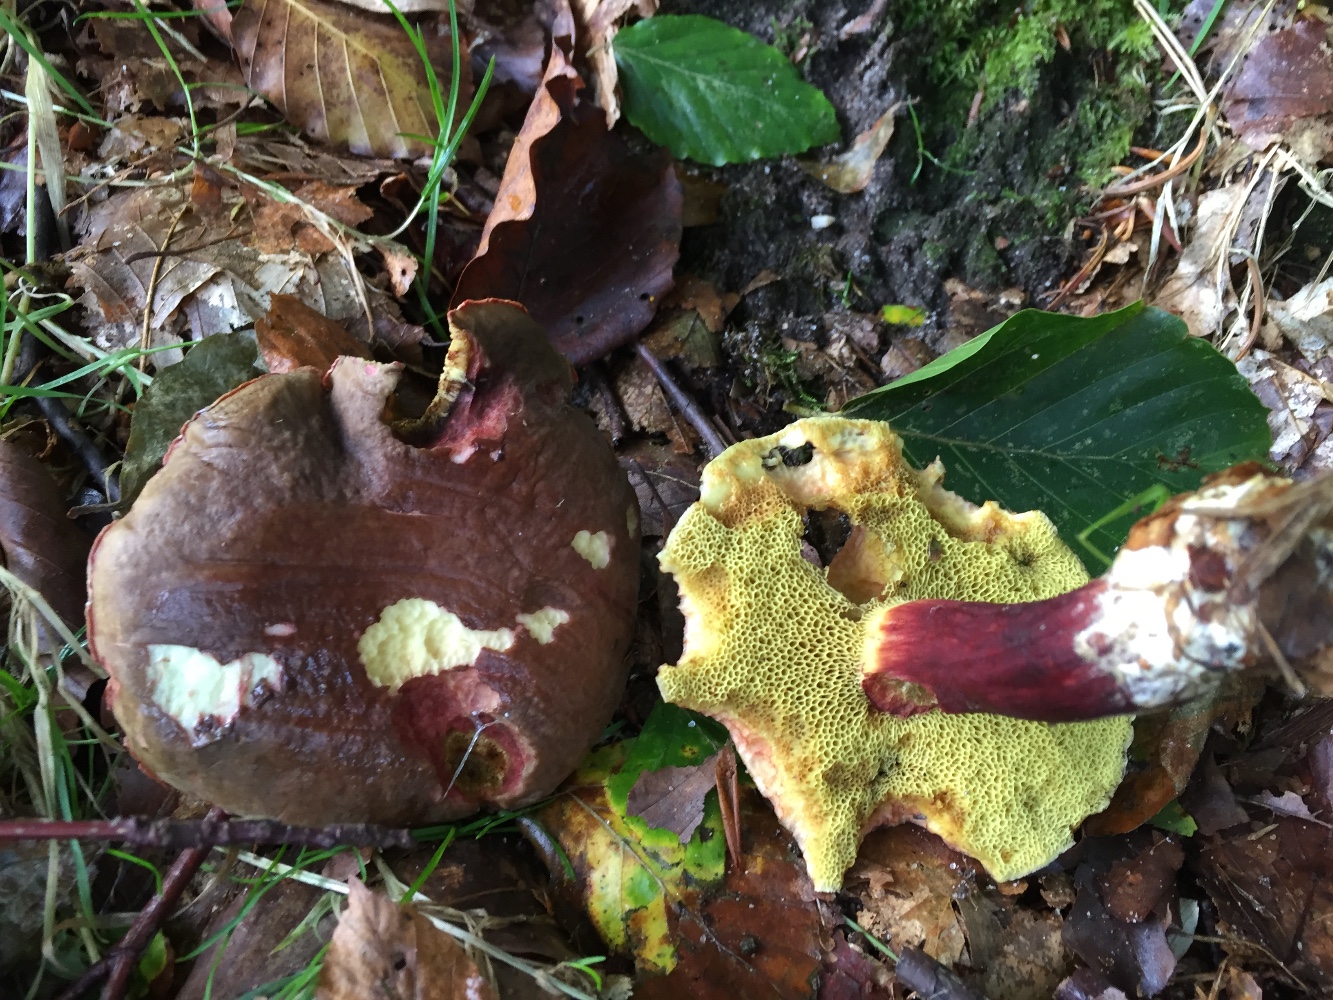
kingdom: Fungi
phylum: Basidiomycota
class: Agaricomycetes
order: Boletales
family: Boletaceae
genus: Xerocomellus
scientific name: Xerocomellus chrysenteron
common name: rødsprukken rørhat
